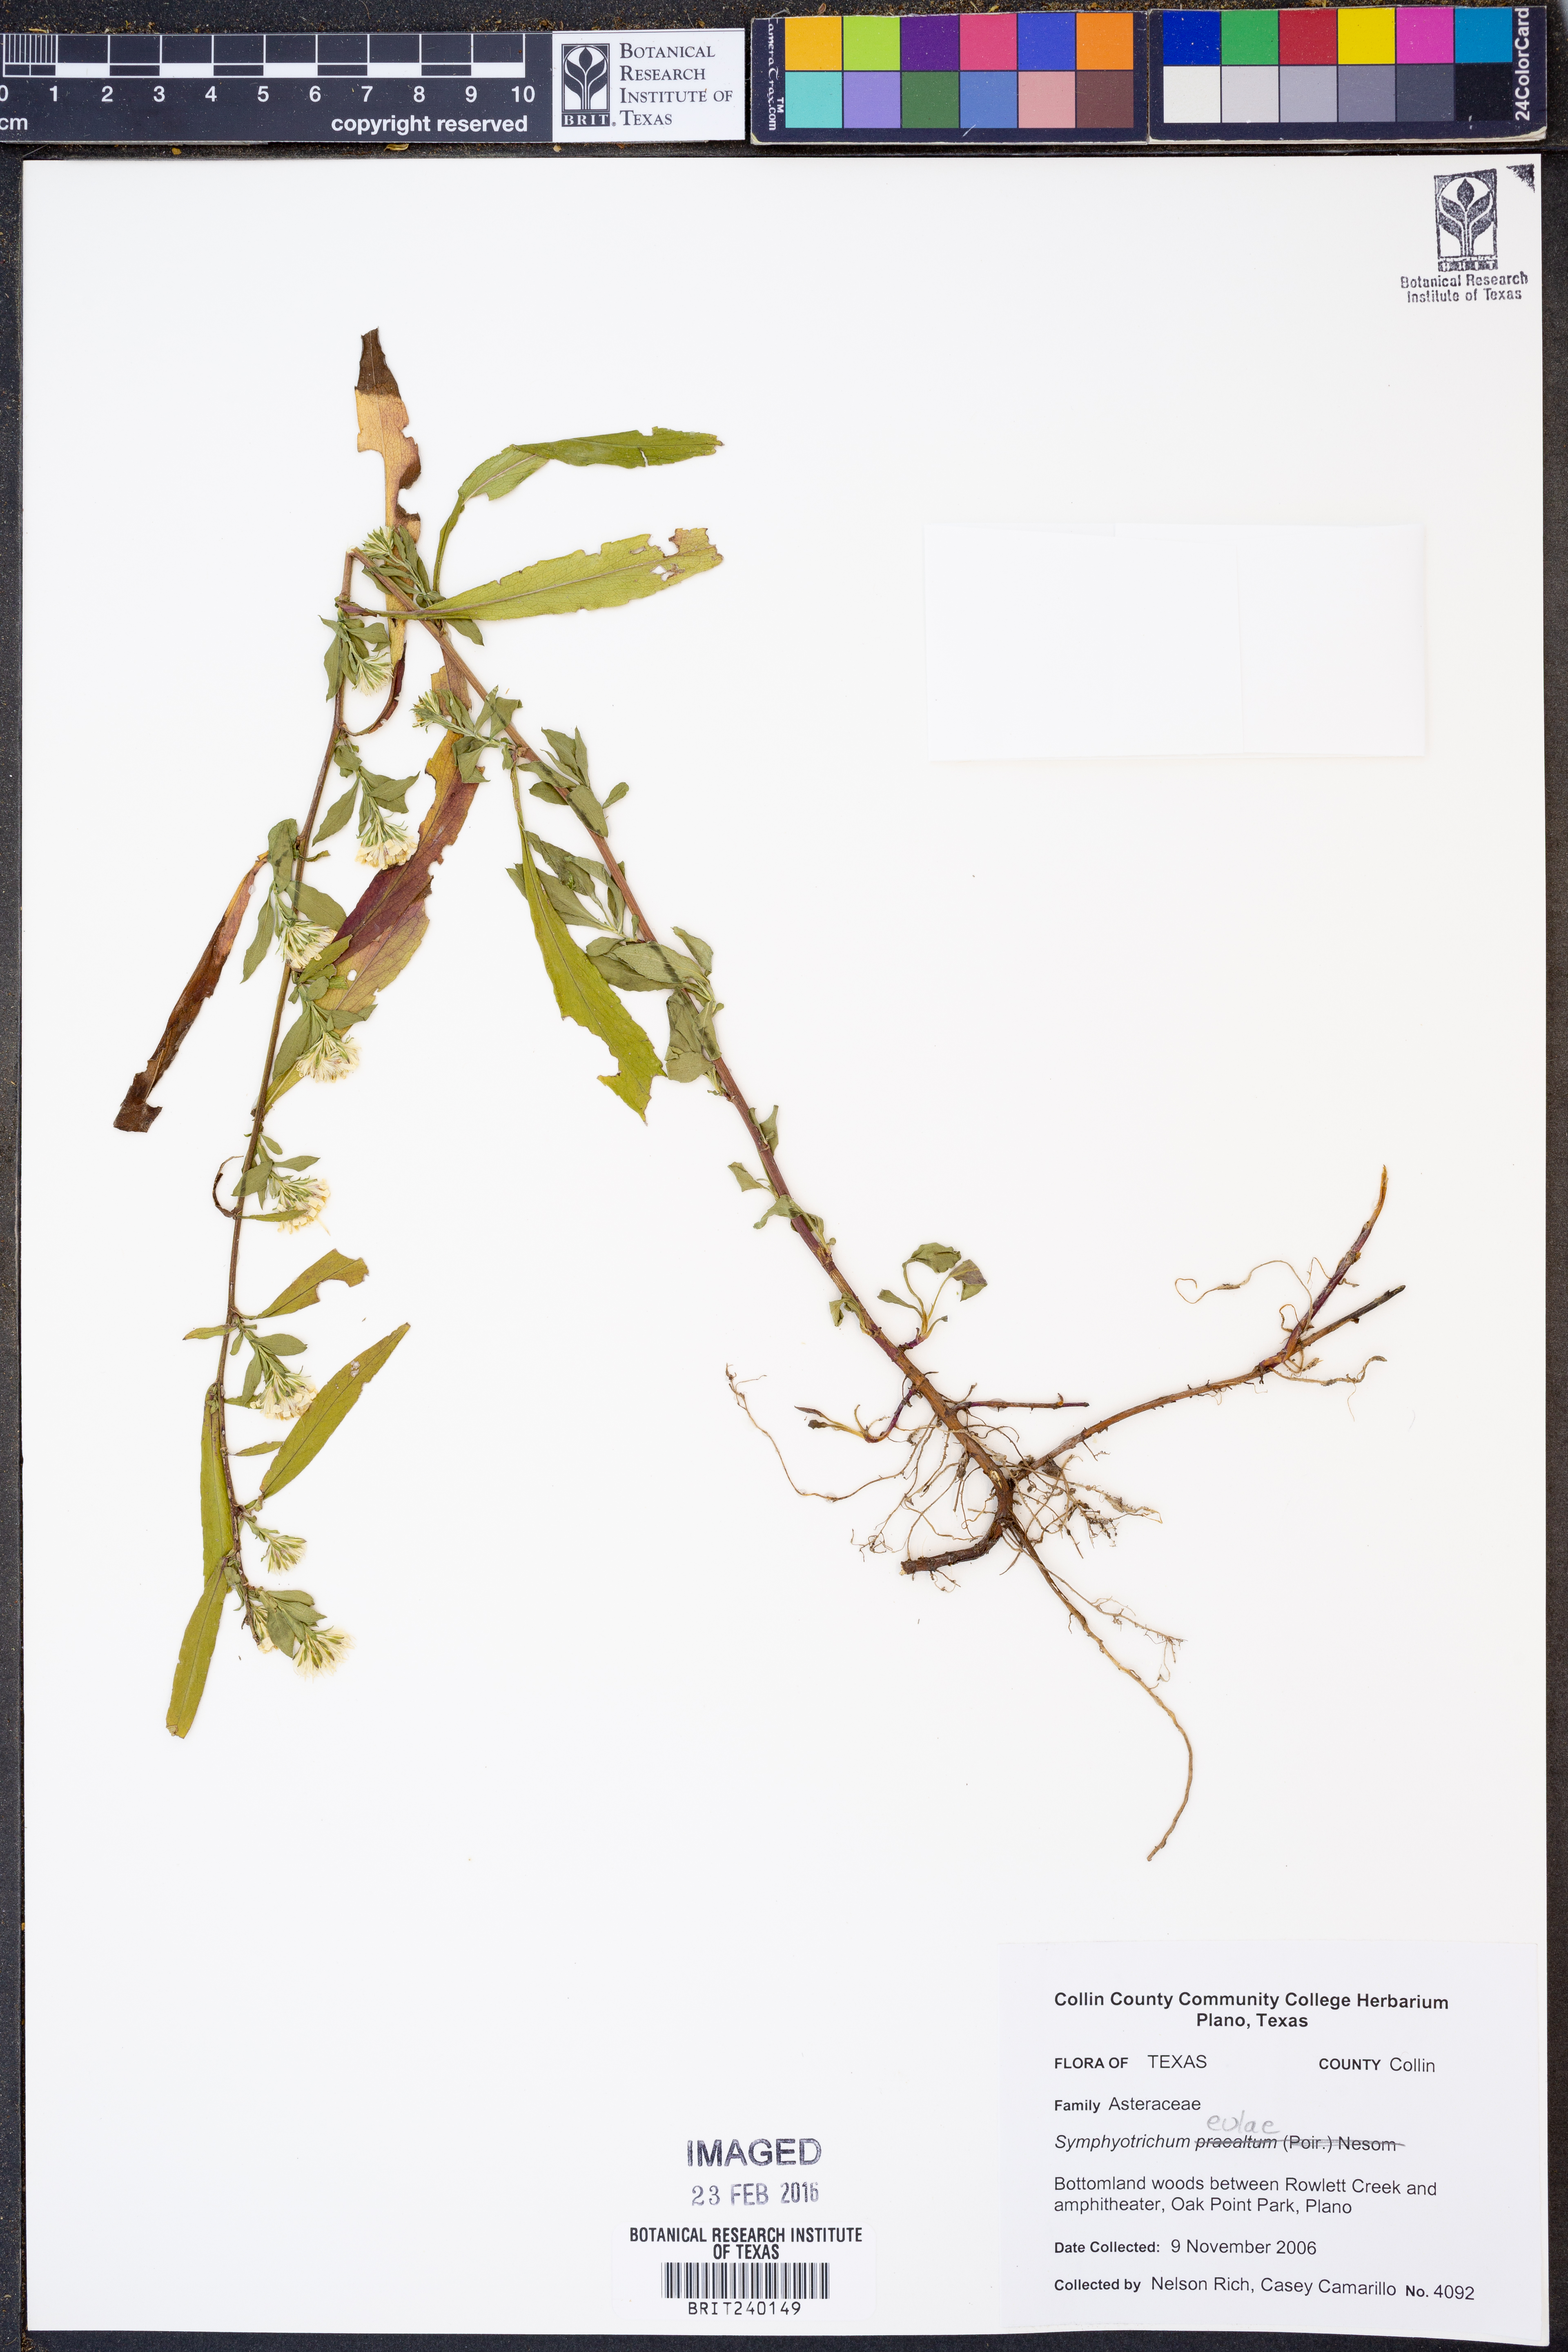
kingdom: Plantae
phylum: Tracheophyta
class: Magnoliopsida
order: Asterales
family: Asteraceae
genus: Symphyotrichum
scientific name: Symphyotrichum eulae
